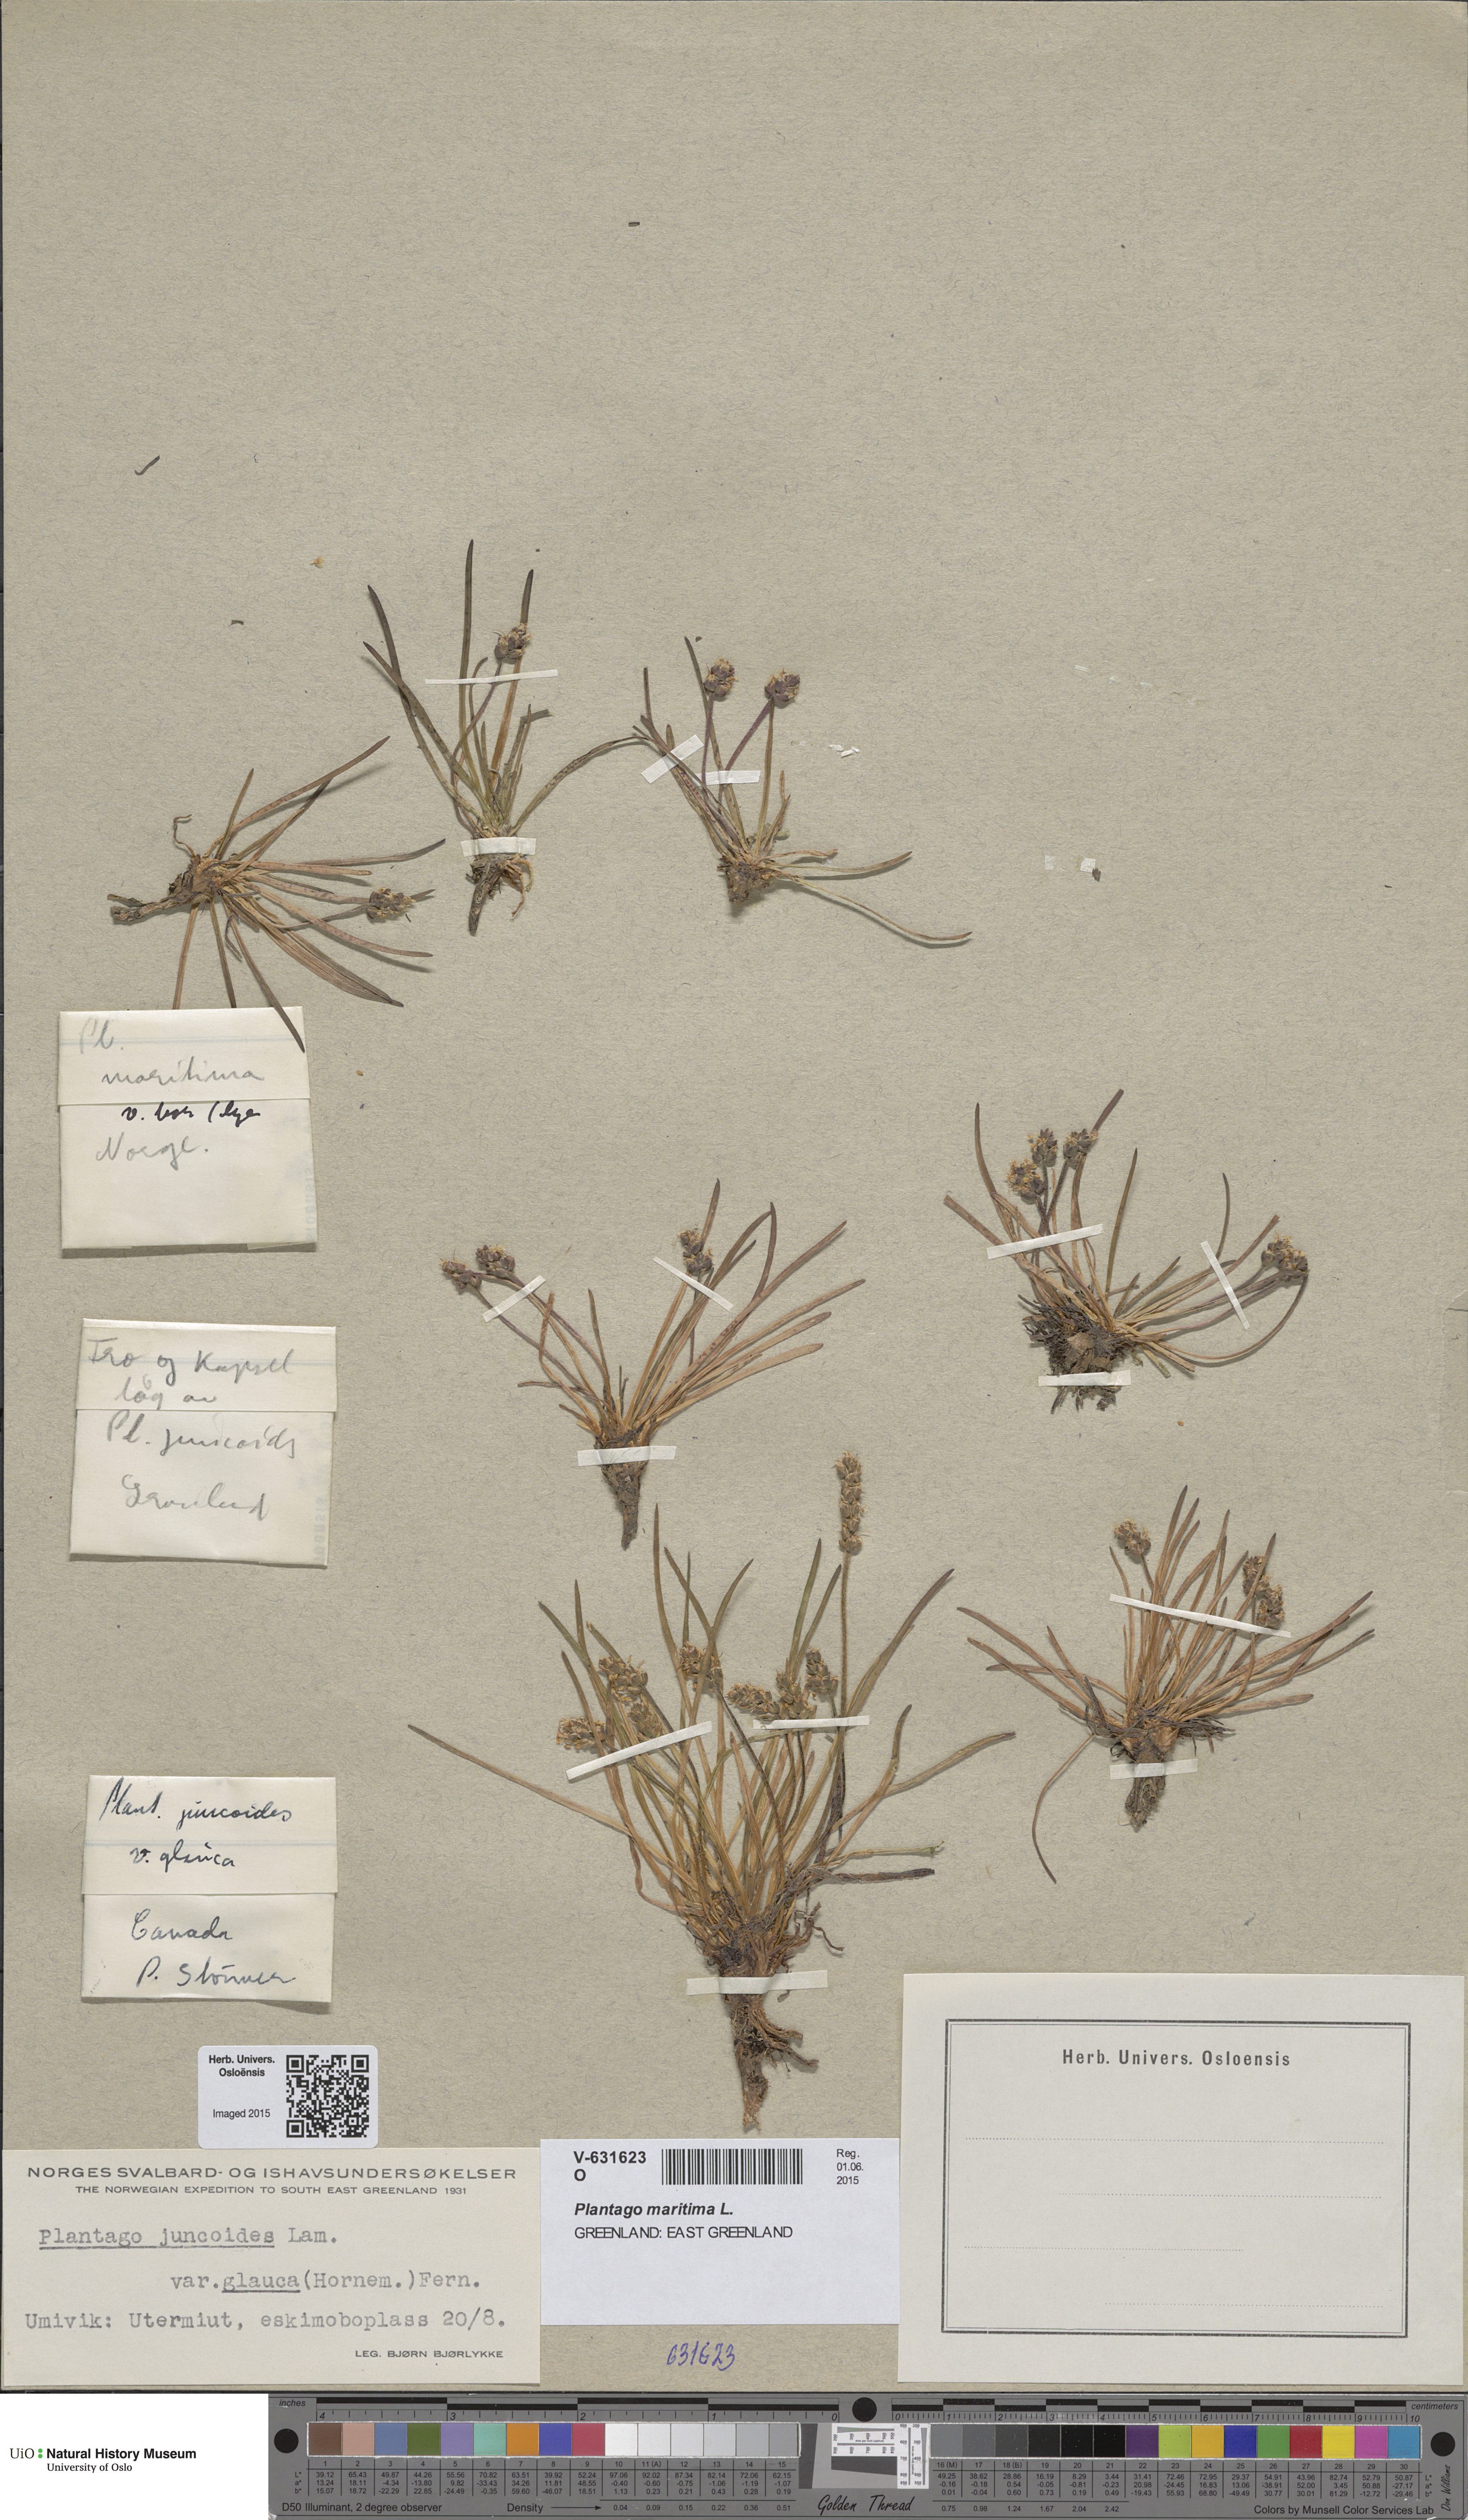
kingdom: Plantae
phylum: Tracheophyta
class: Magnoliopsida
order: Lamiales
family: Plantaginaceae
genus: Plantago
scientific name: Plantago maritima
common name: Sea plantain
